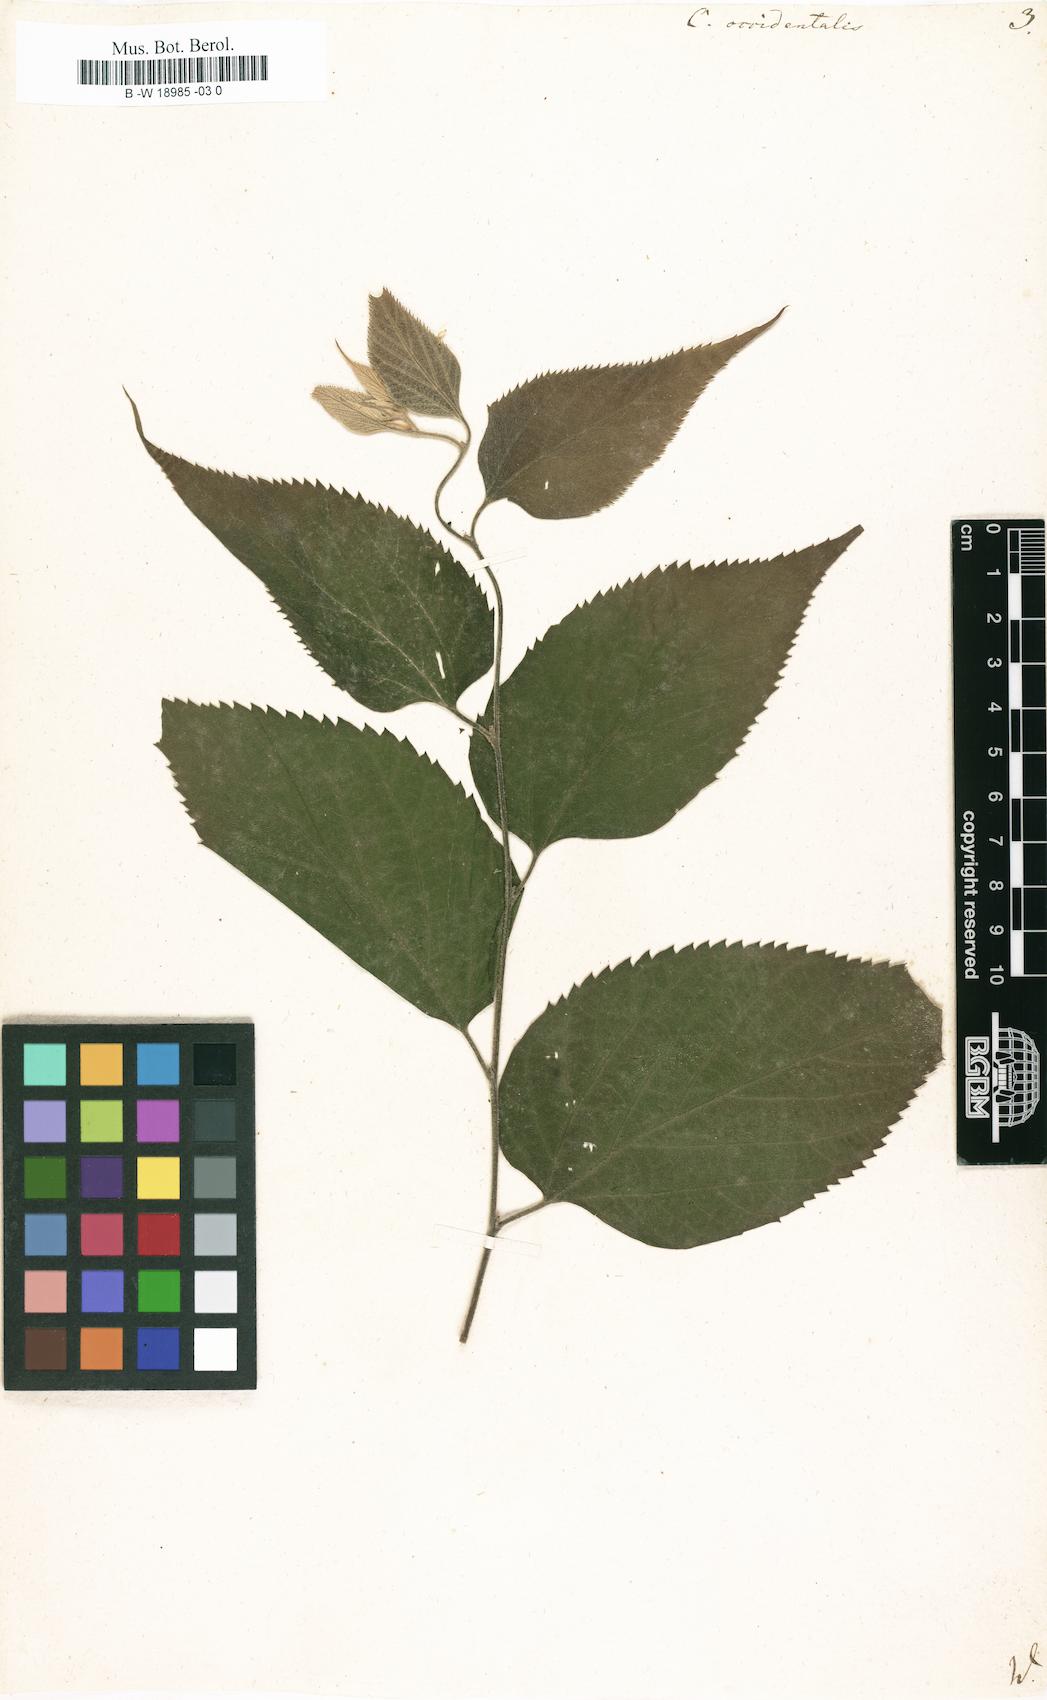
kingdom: Plantae
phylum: Tracheophyta
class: Magnoliopsida
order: Rosales
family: Cannabaceae
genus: Celtis
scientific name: Celtis occidentalis
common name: Common hackberry
